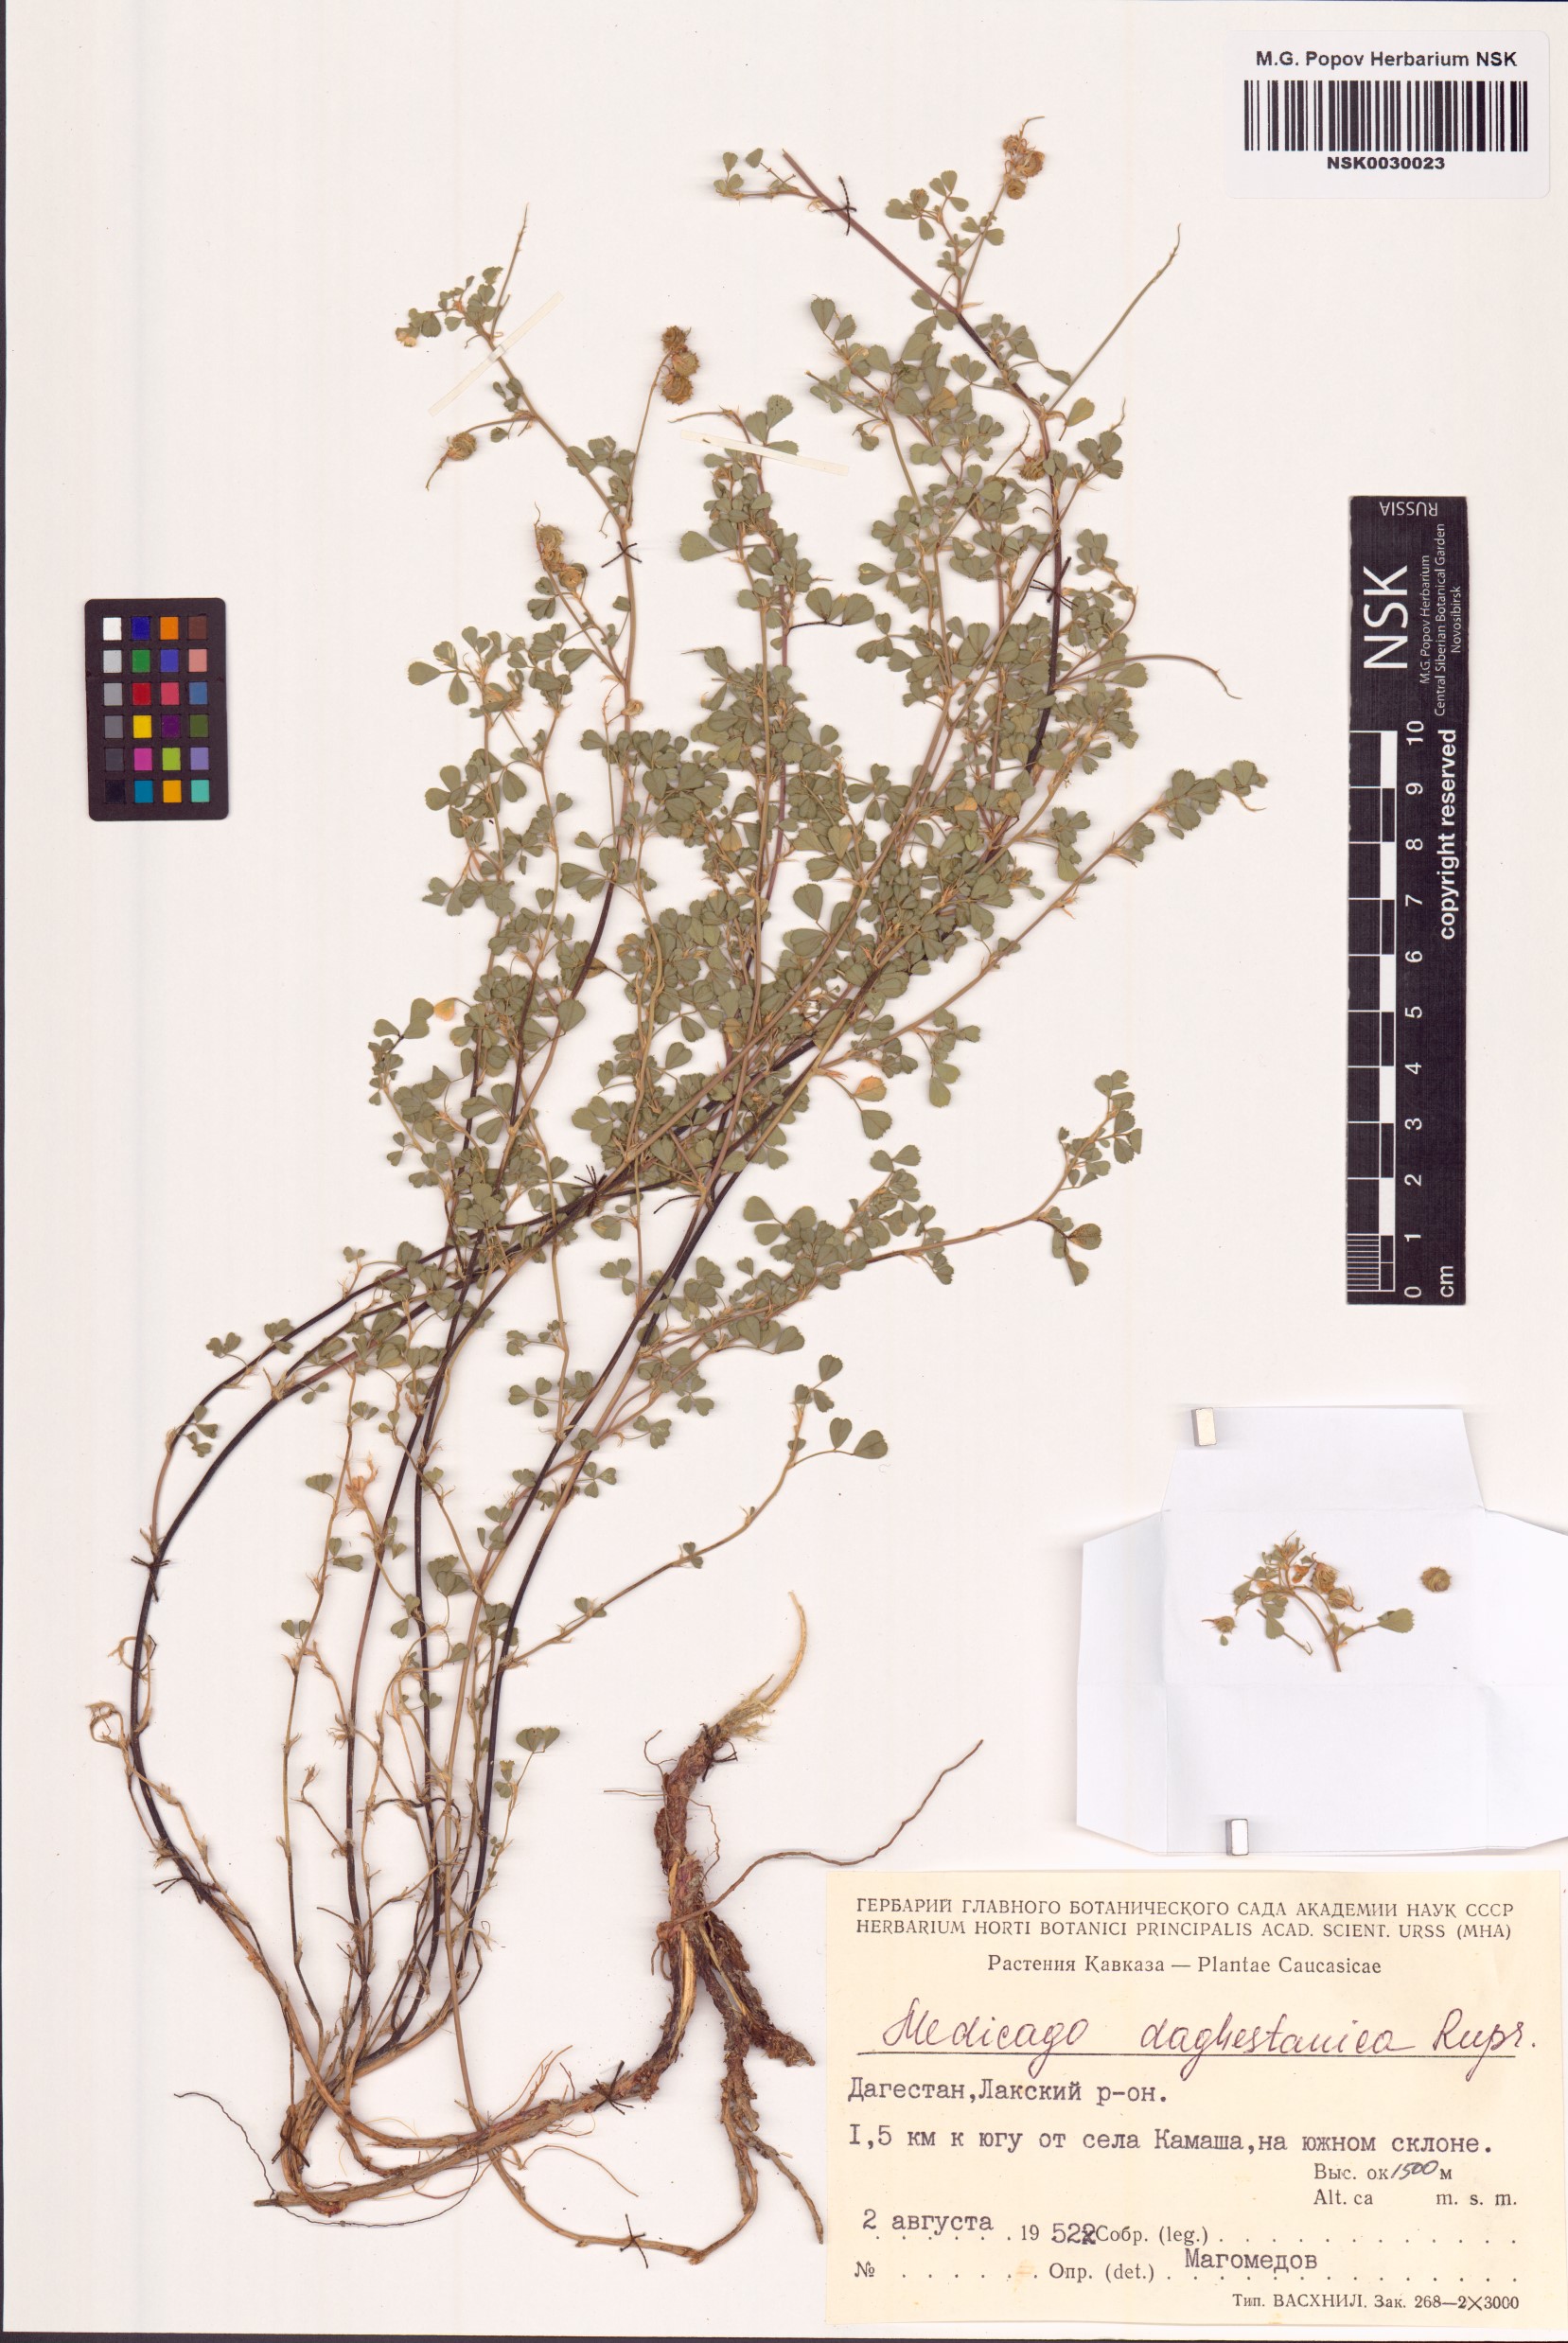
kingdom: Plantae
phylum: Tracheophyta
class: Magnoliopsida
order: Fabales
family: Fabaceae
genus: Medicago
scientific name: Medicago daghestanica
